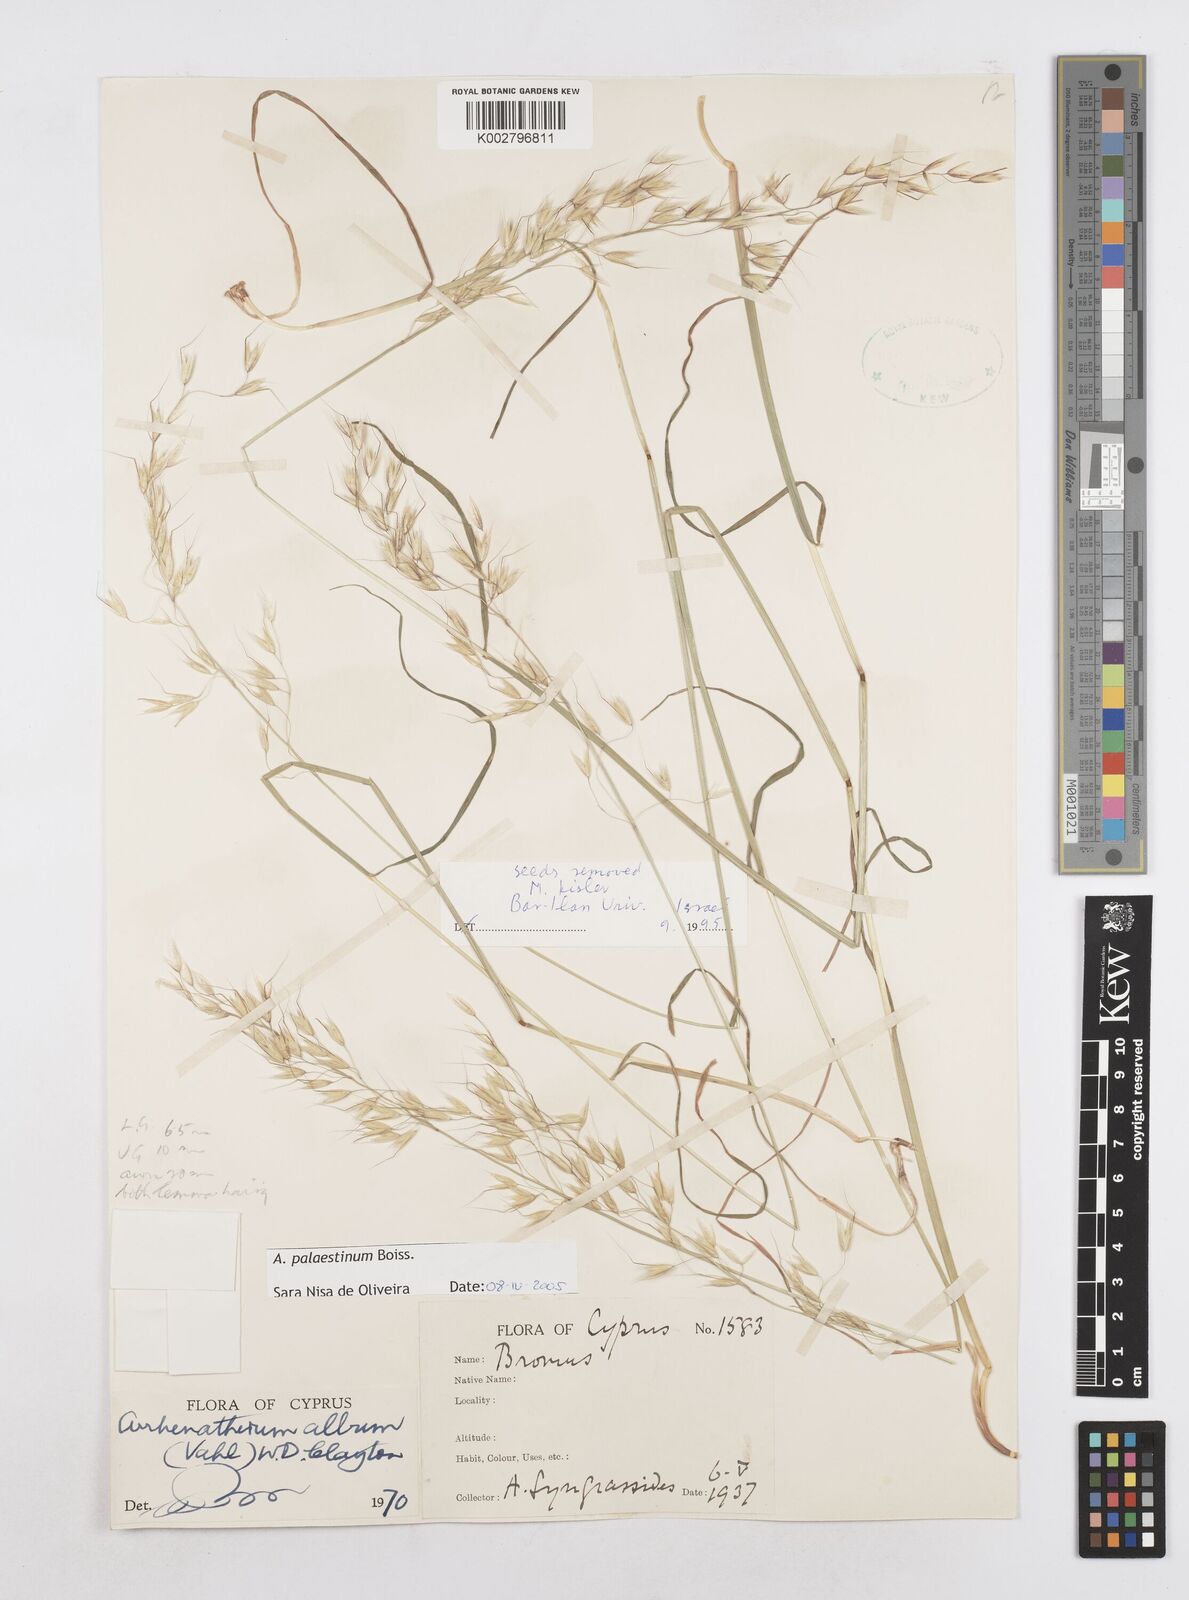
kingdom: Plantae
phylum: Tracheophyta
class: Liliopsida
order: Poales
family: Poaceae
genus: Arrhenatherum
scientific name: Arrhenatherum palaestinum
